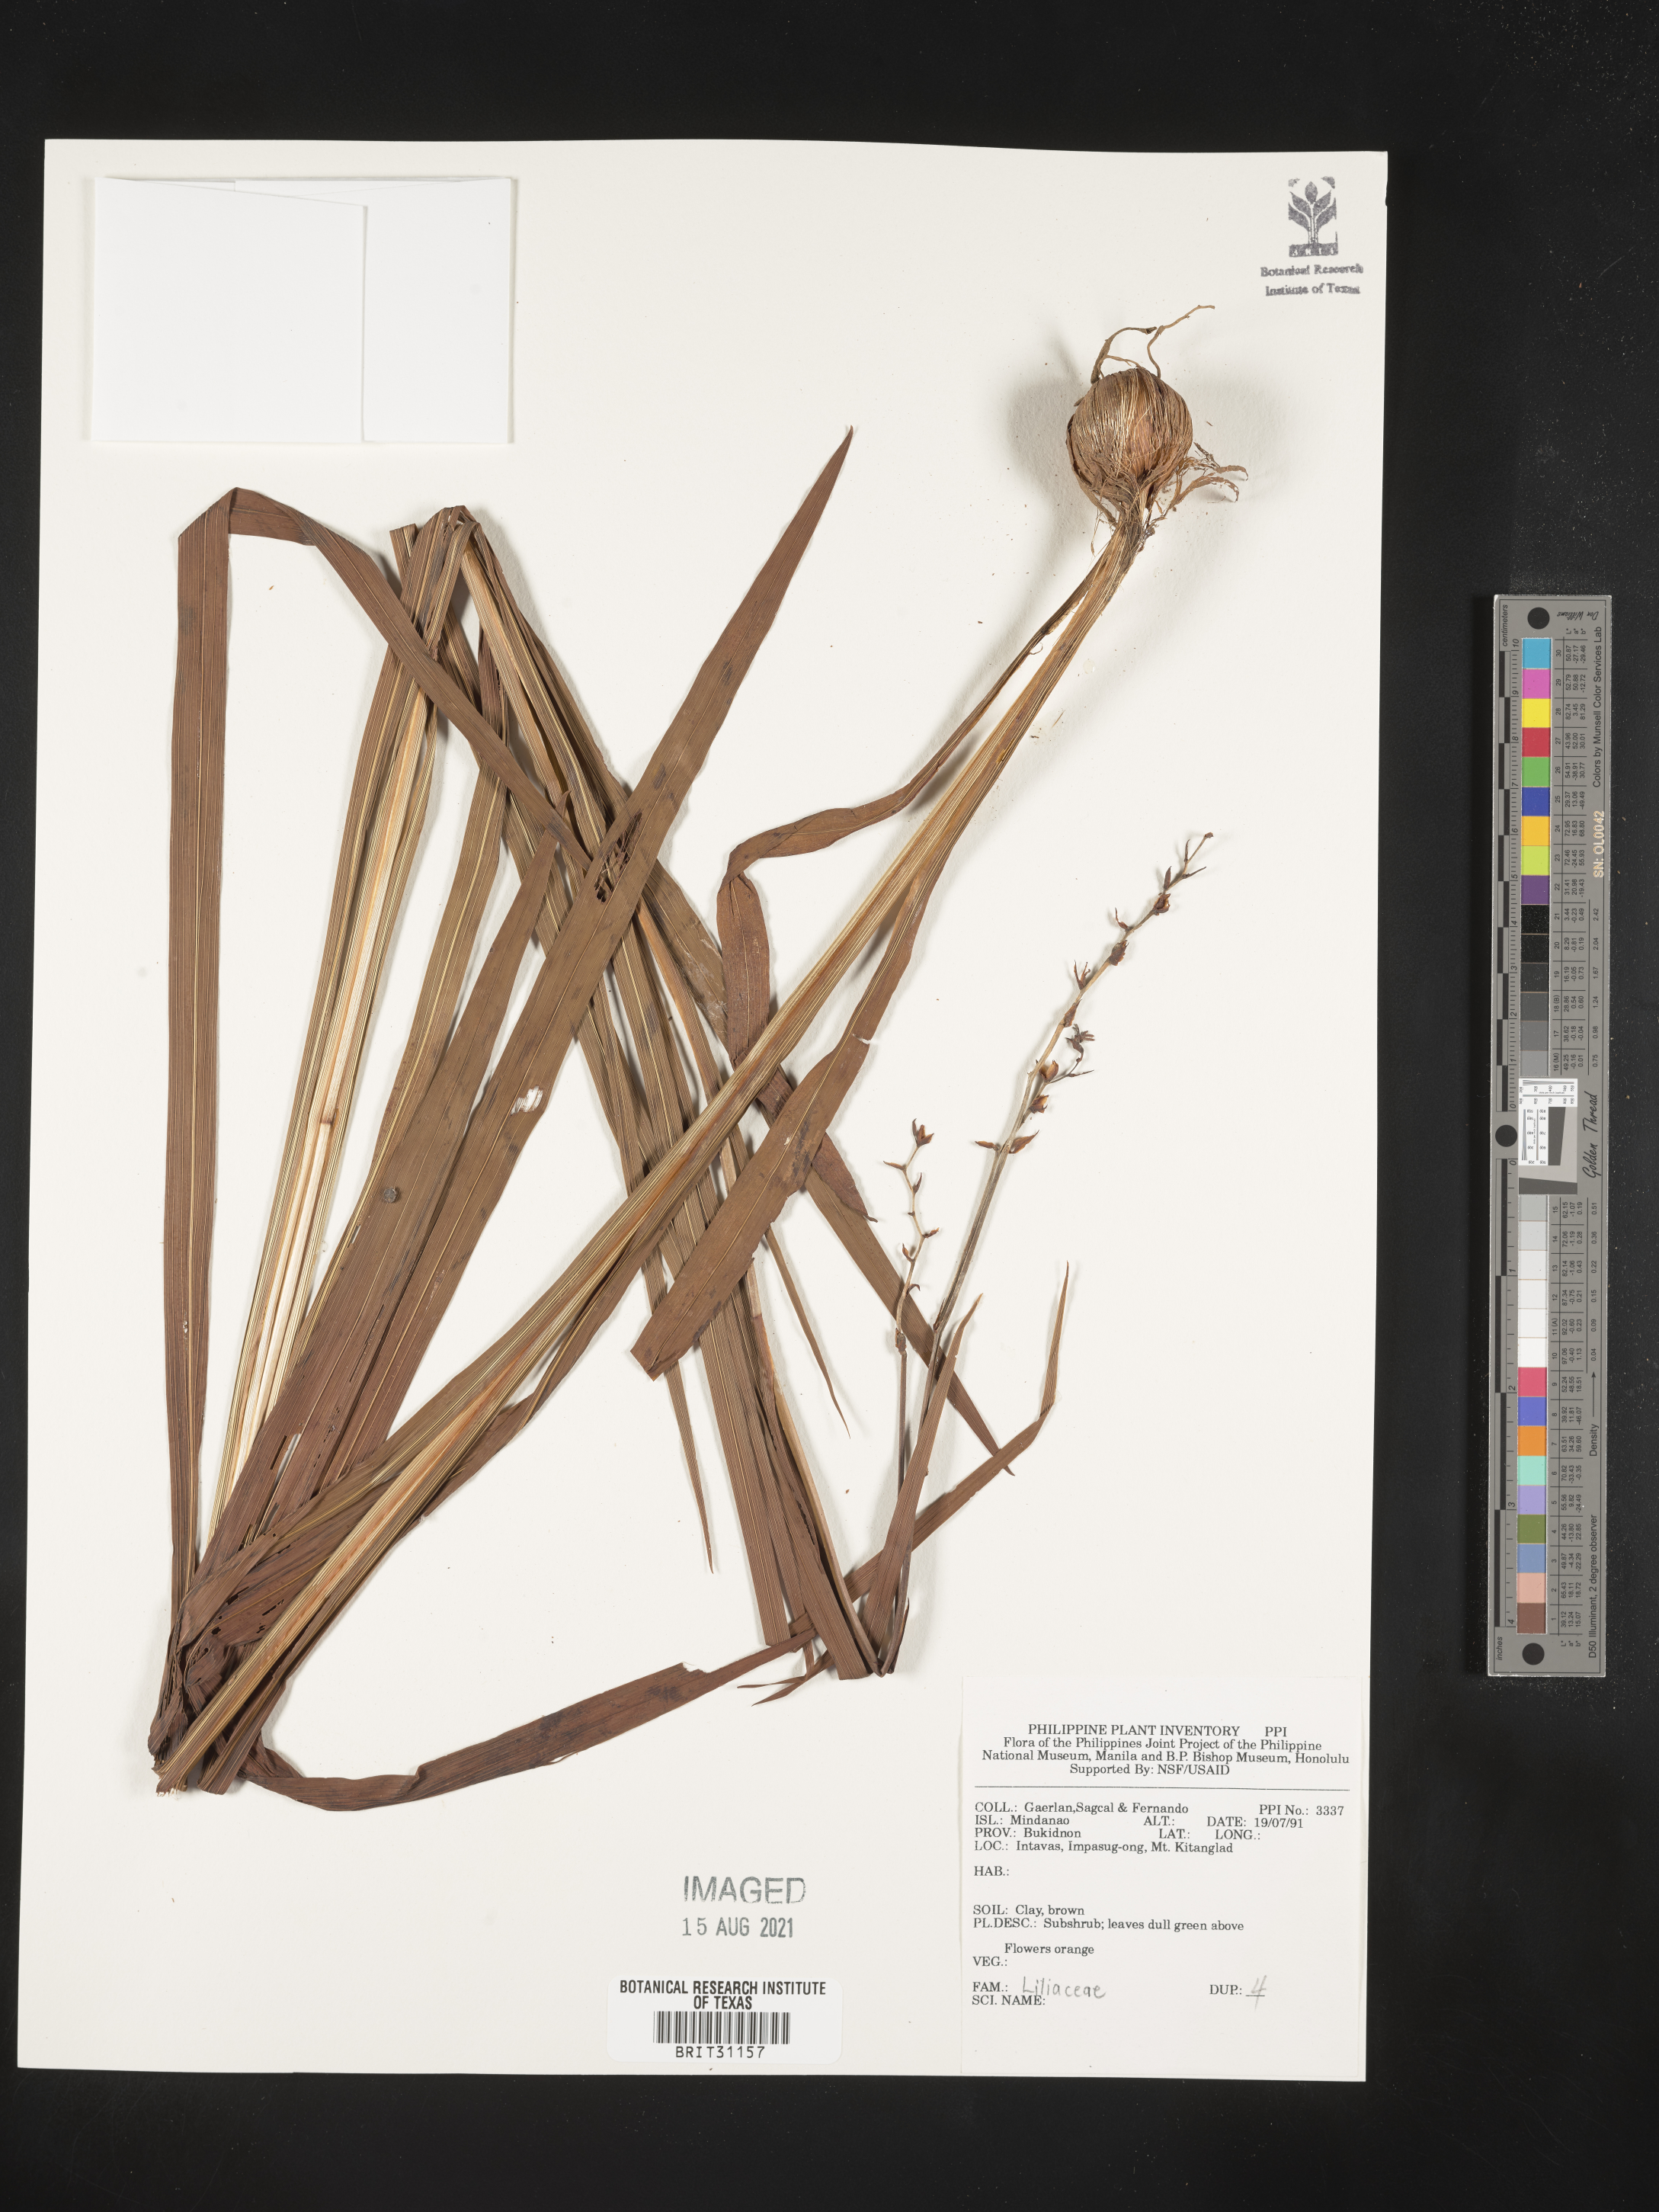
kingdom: Plantae
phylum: Tracheophyta
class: Liliopsida
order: Liliales
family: Liliaceae
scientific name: Liliaceae
